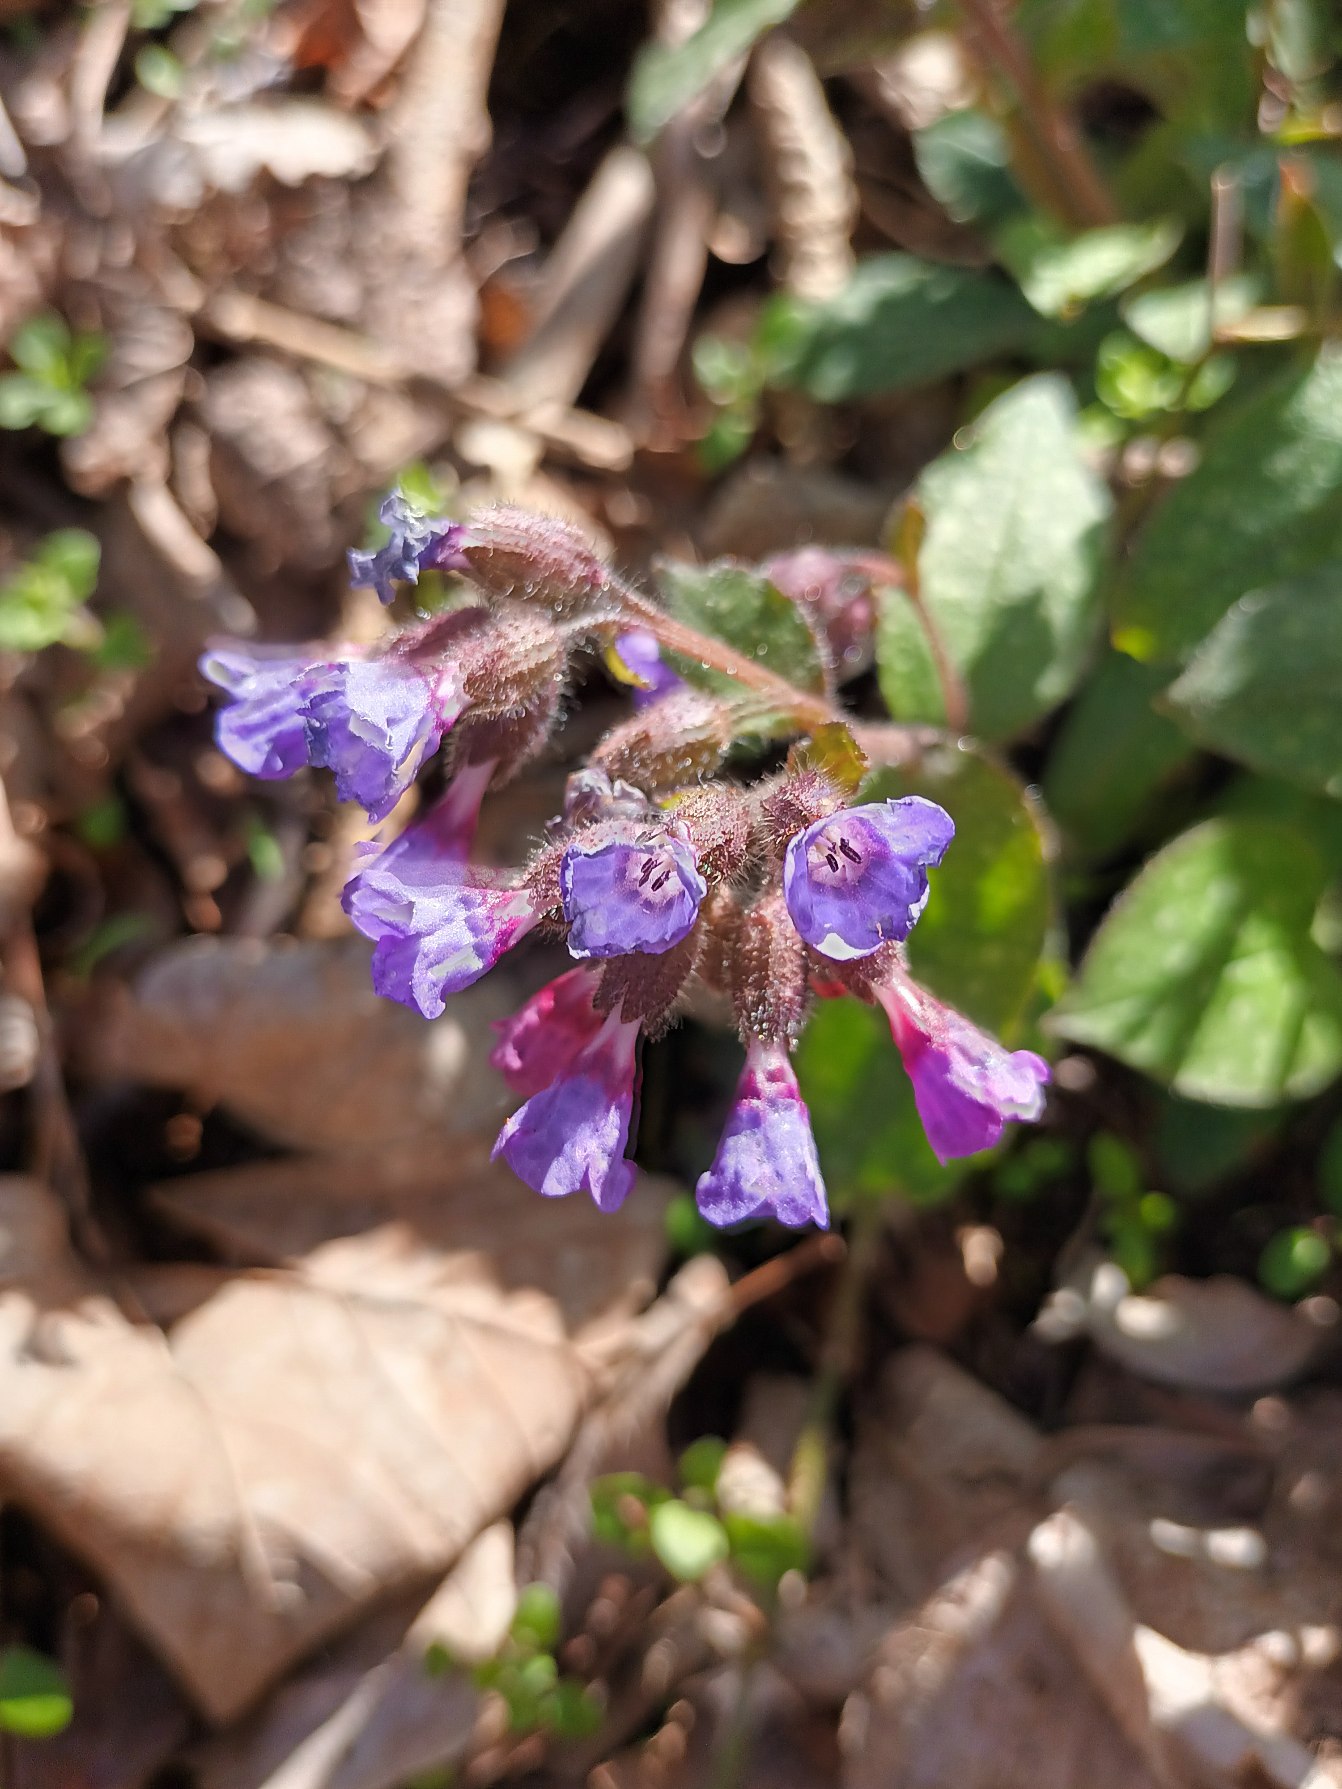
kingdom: Plantae
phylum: Tracheophyta
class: Magnoliopsida
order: Boraginales
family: Boraginaceae
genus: Pulmonaria
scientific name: Pulmonaria officinalis
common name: Hvidplettet lungeurt
